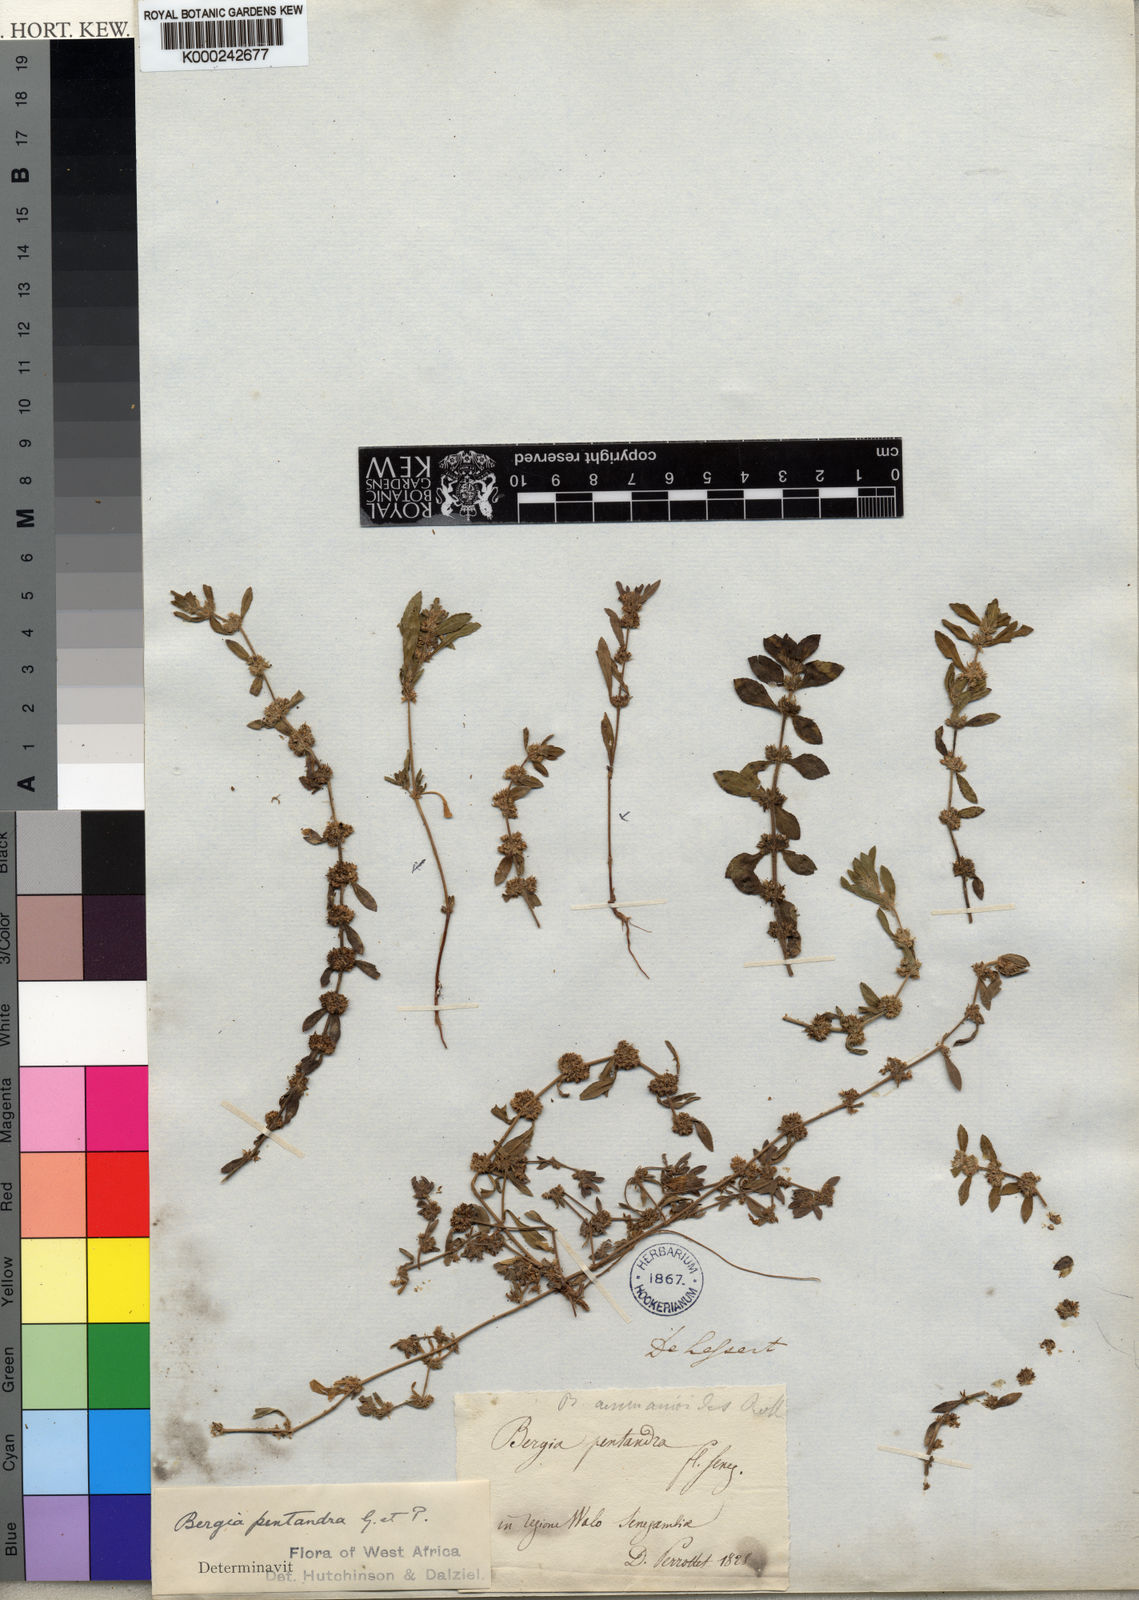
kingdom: Plantae
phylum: Tracheophyta
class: Magnoliopsida
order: Malpighiales
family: Elatinaceae
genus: Bergia
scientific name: Bergia ammannioides
